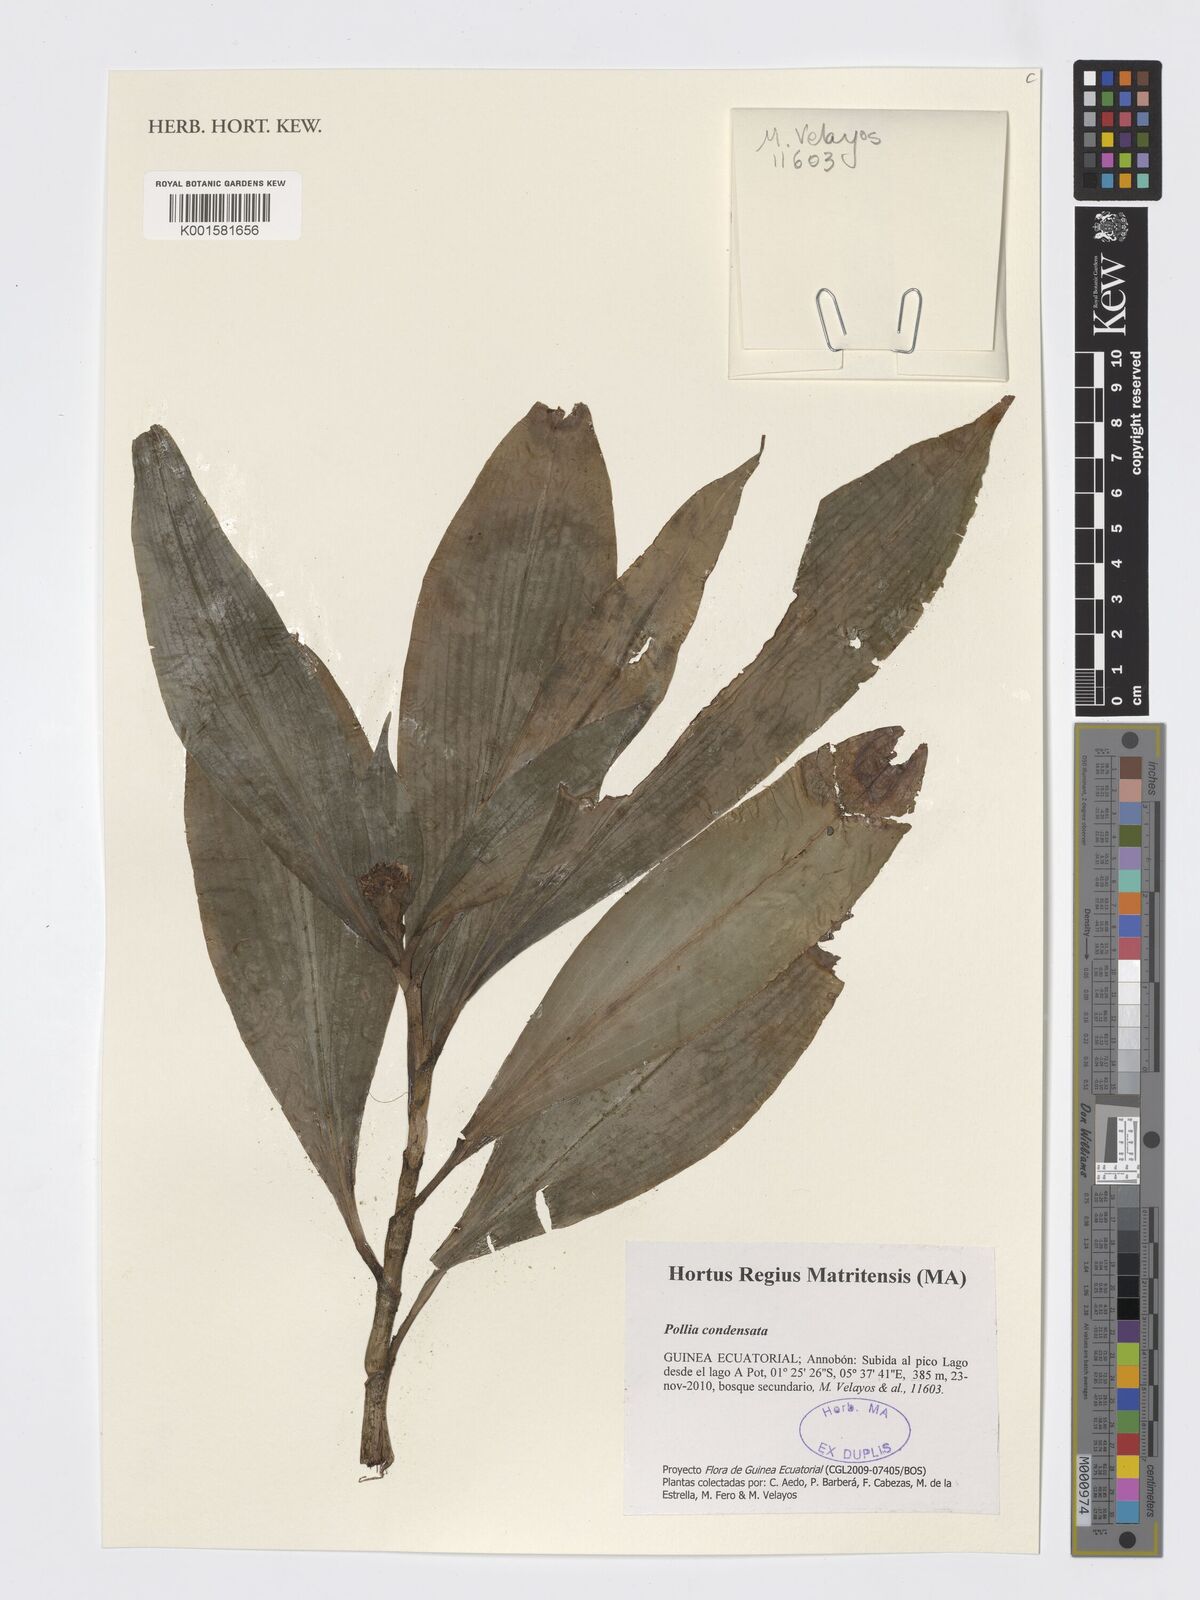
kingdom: Plantae
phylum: Tracheophyta
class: Liliopsida
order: Commelinales
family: Commelinaceae
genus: Pollia
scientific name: Pollia condensata
